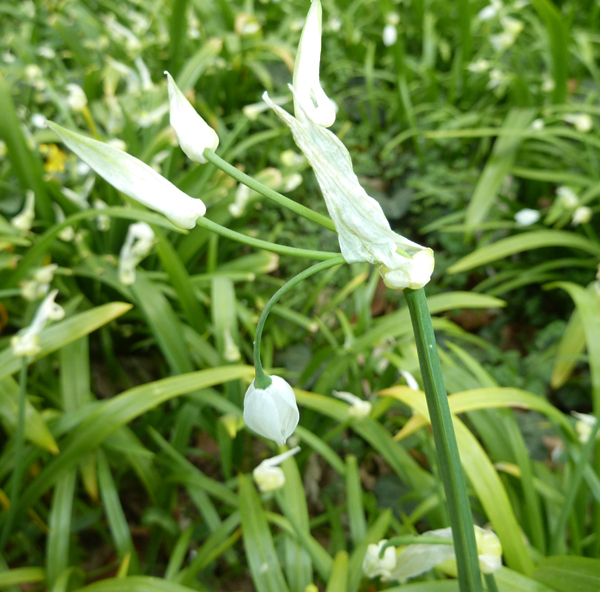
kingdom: Plantae
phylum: Tracheophyta
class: Liliopsida
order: Asparagales
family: Amaryllidaceae
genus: Allium
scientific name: Allium paradoxum
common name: Few-flowered garlic
